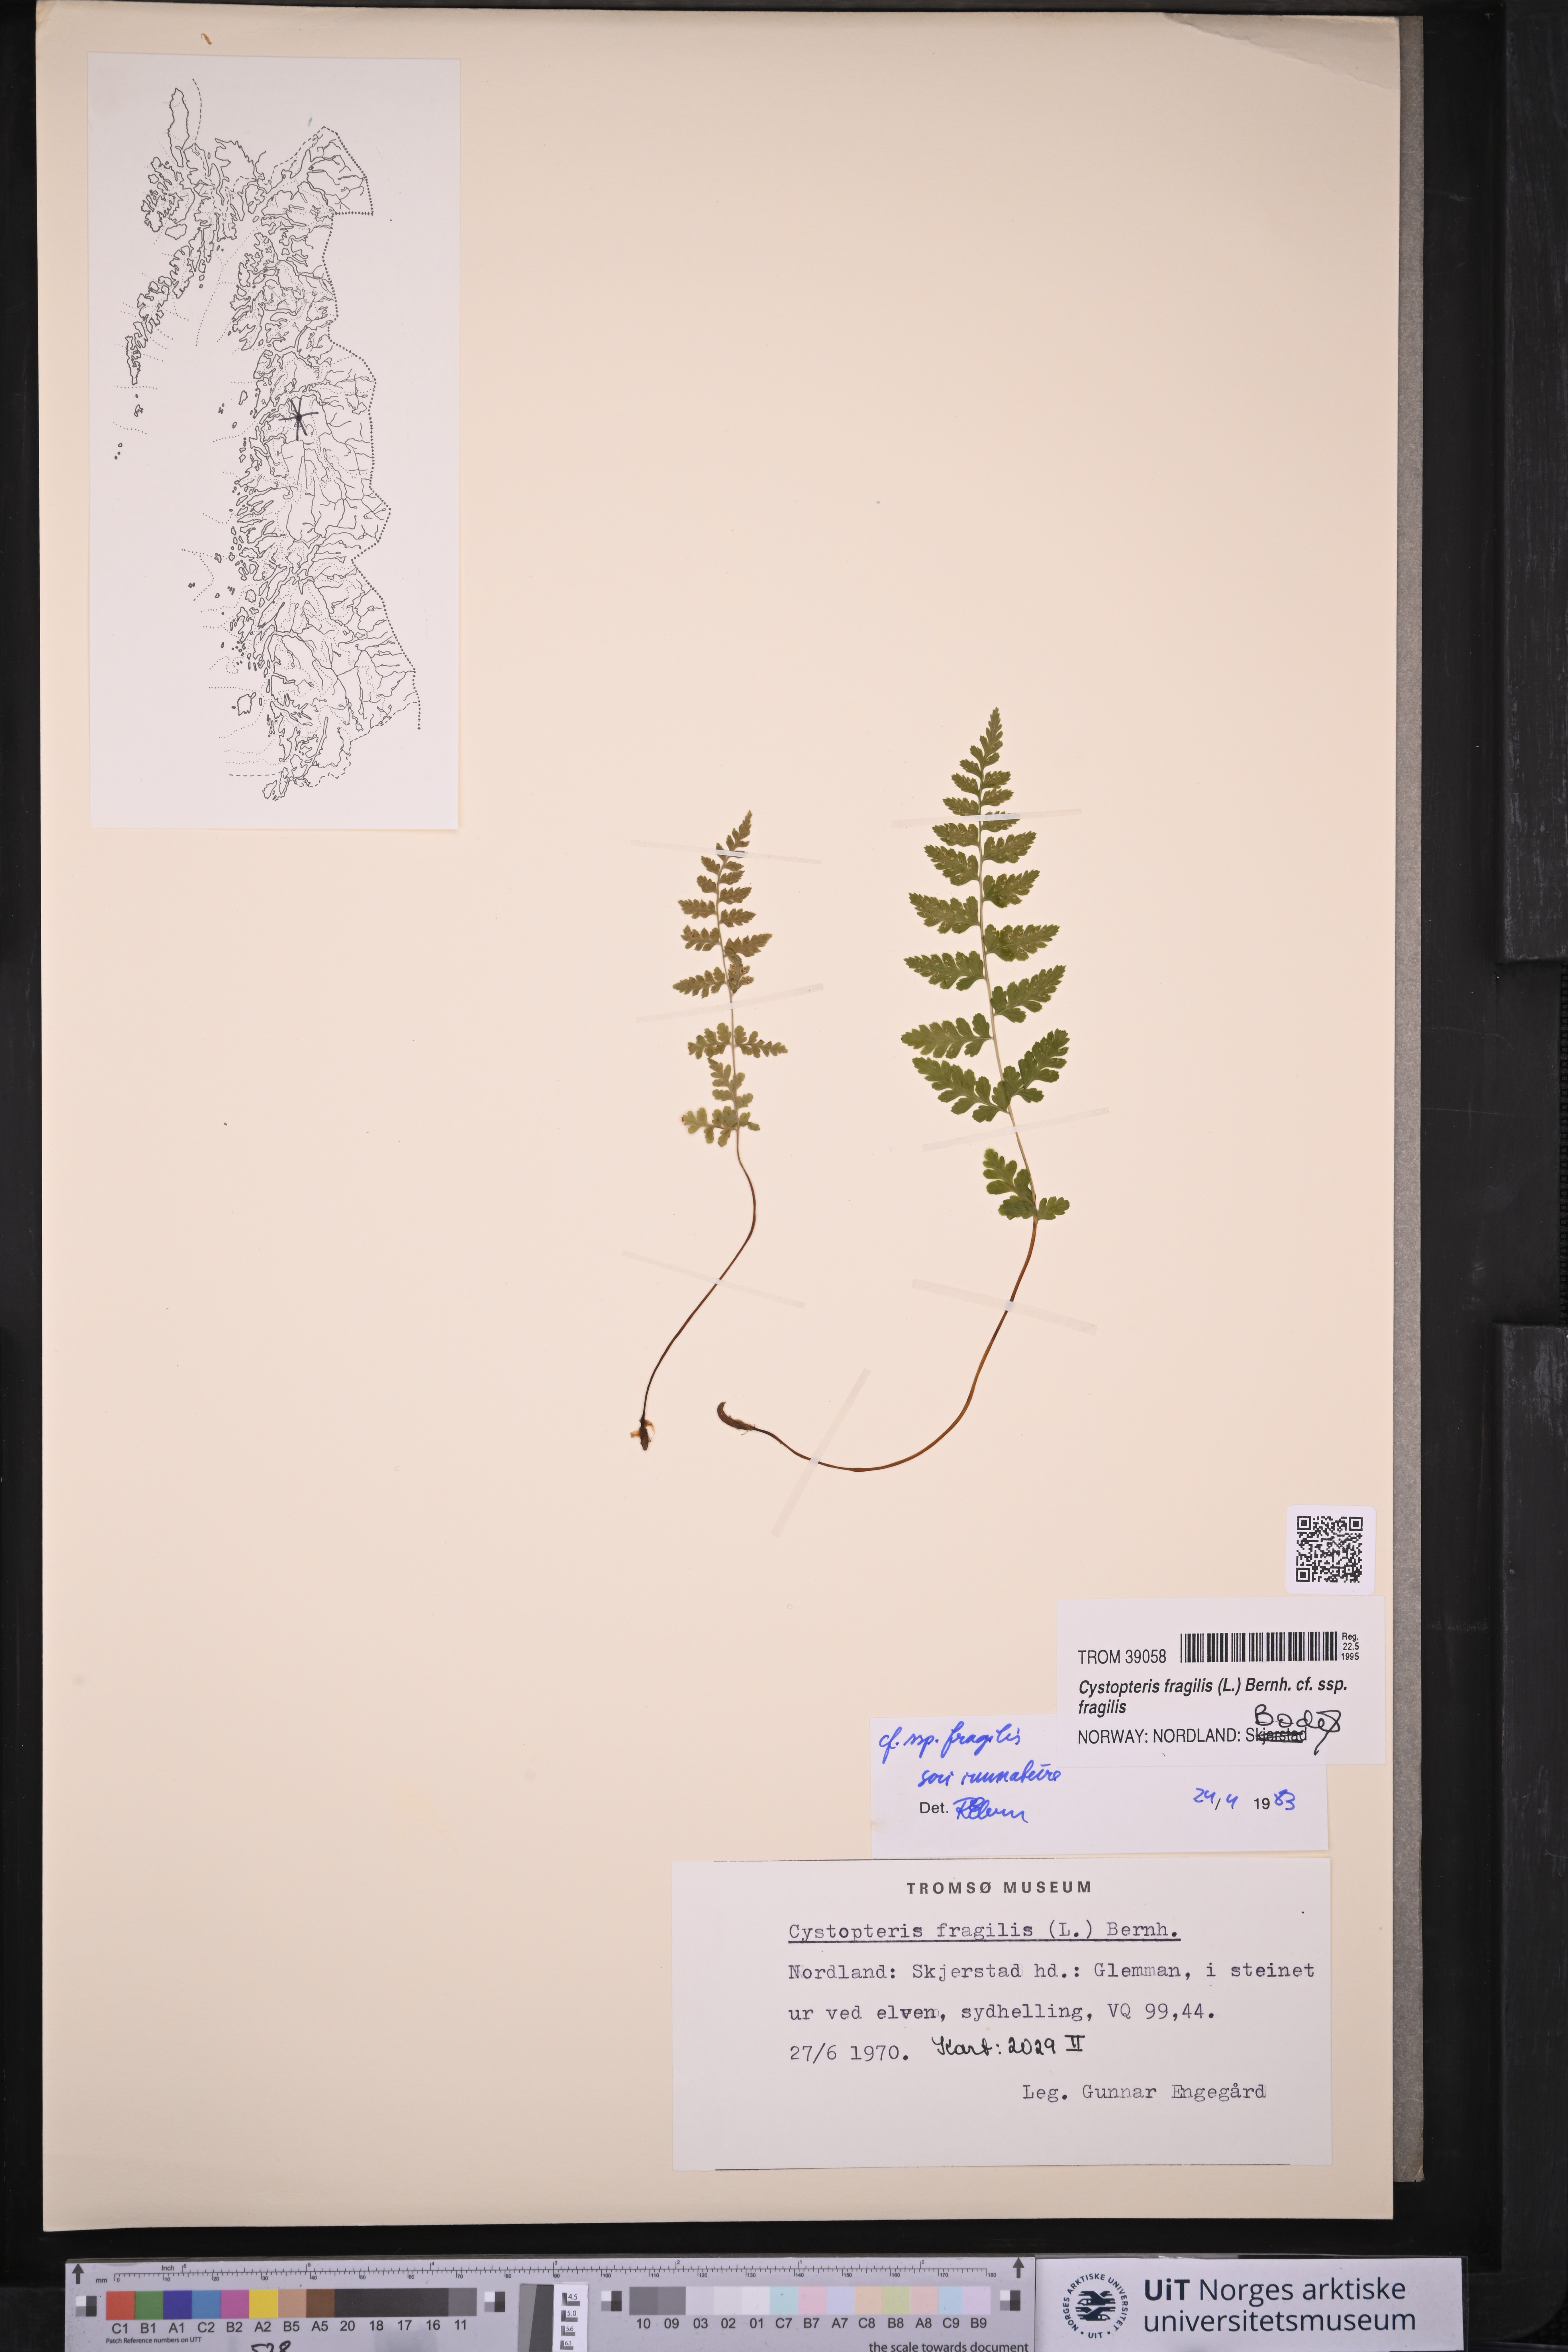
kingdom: Plantae
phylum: Tracheophyta
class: Polypodiopsida
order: Polypodiales
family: Cystopteridaceae
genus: Cystopteris
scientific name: Cystopteris fragilis
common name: Brittle bladder fern
